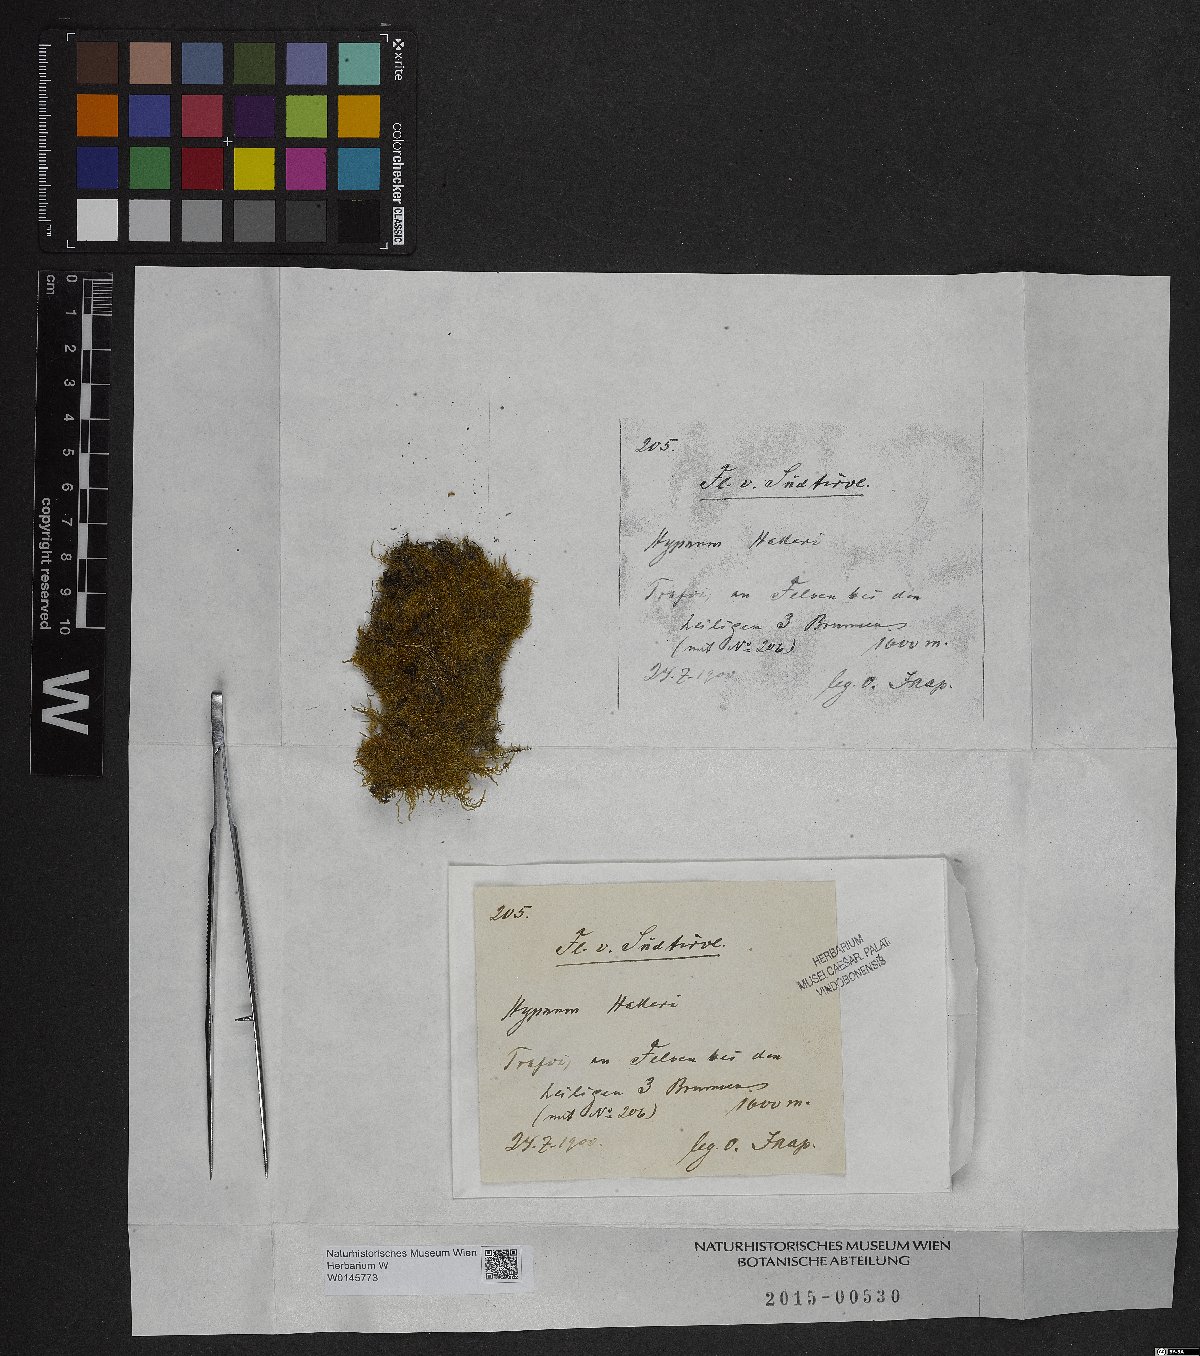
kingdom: Plantae
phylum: Bryophyta
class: Bryopsida
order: Hypnales
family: Amblystegiaceae
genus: Campylophyllum
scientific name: Campylophyllum halleri
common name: Haller's fine wet moss
